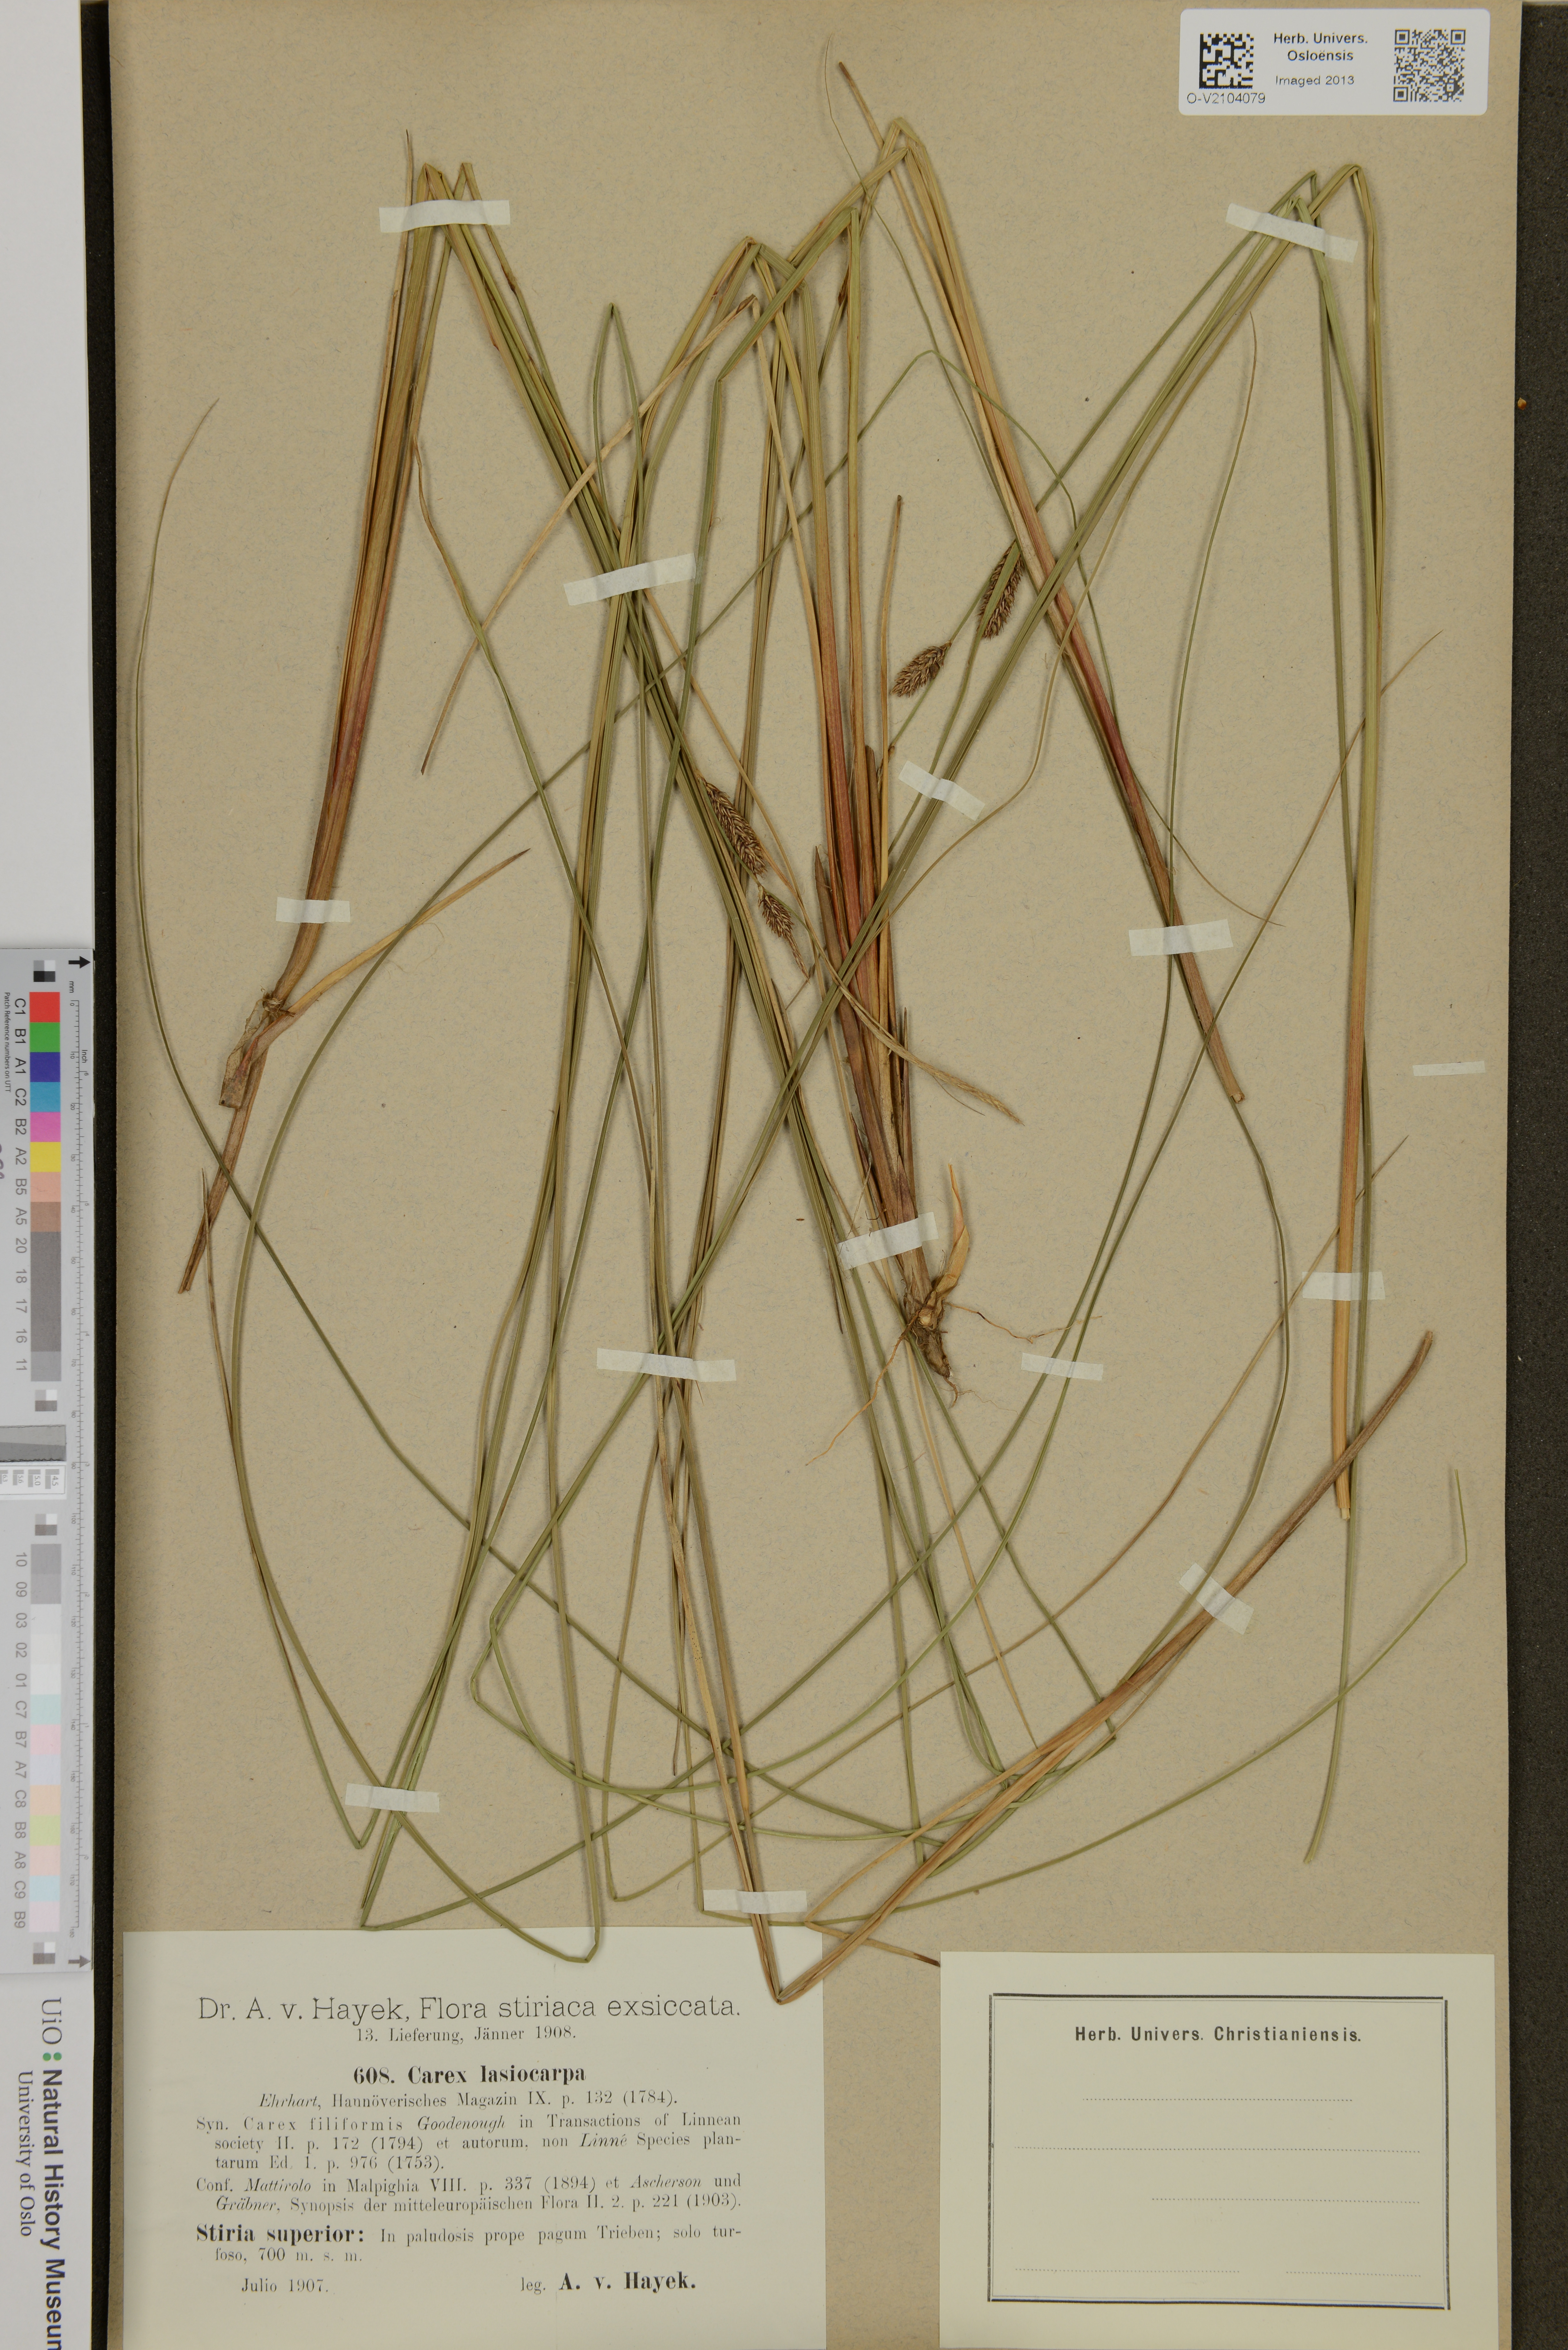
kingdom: Plantae
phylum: Tracheophyta
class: Liliopsida
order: Poales
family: Cyperaceae
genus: Carex
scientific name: Carex lasiocarpa
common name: Slender sedge
